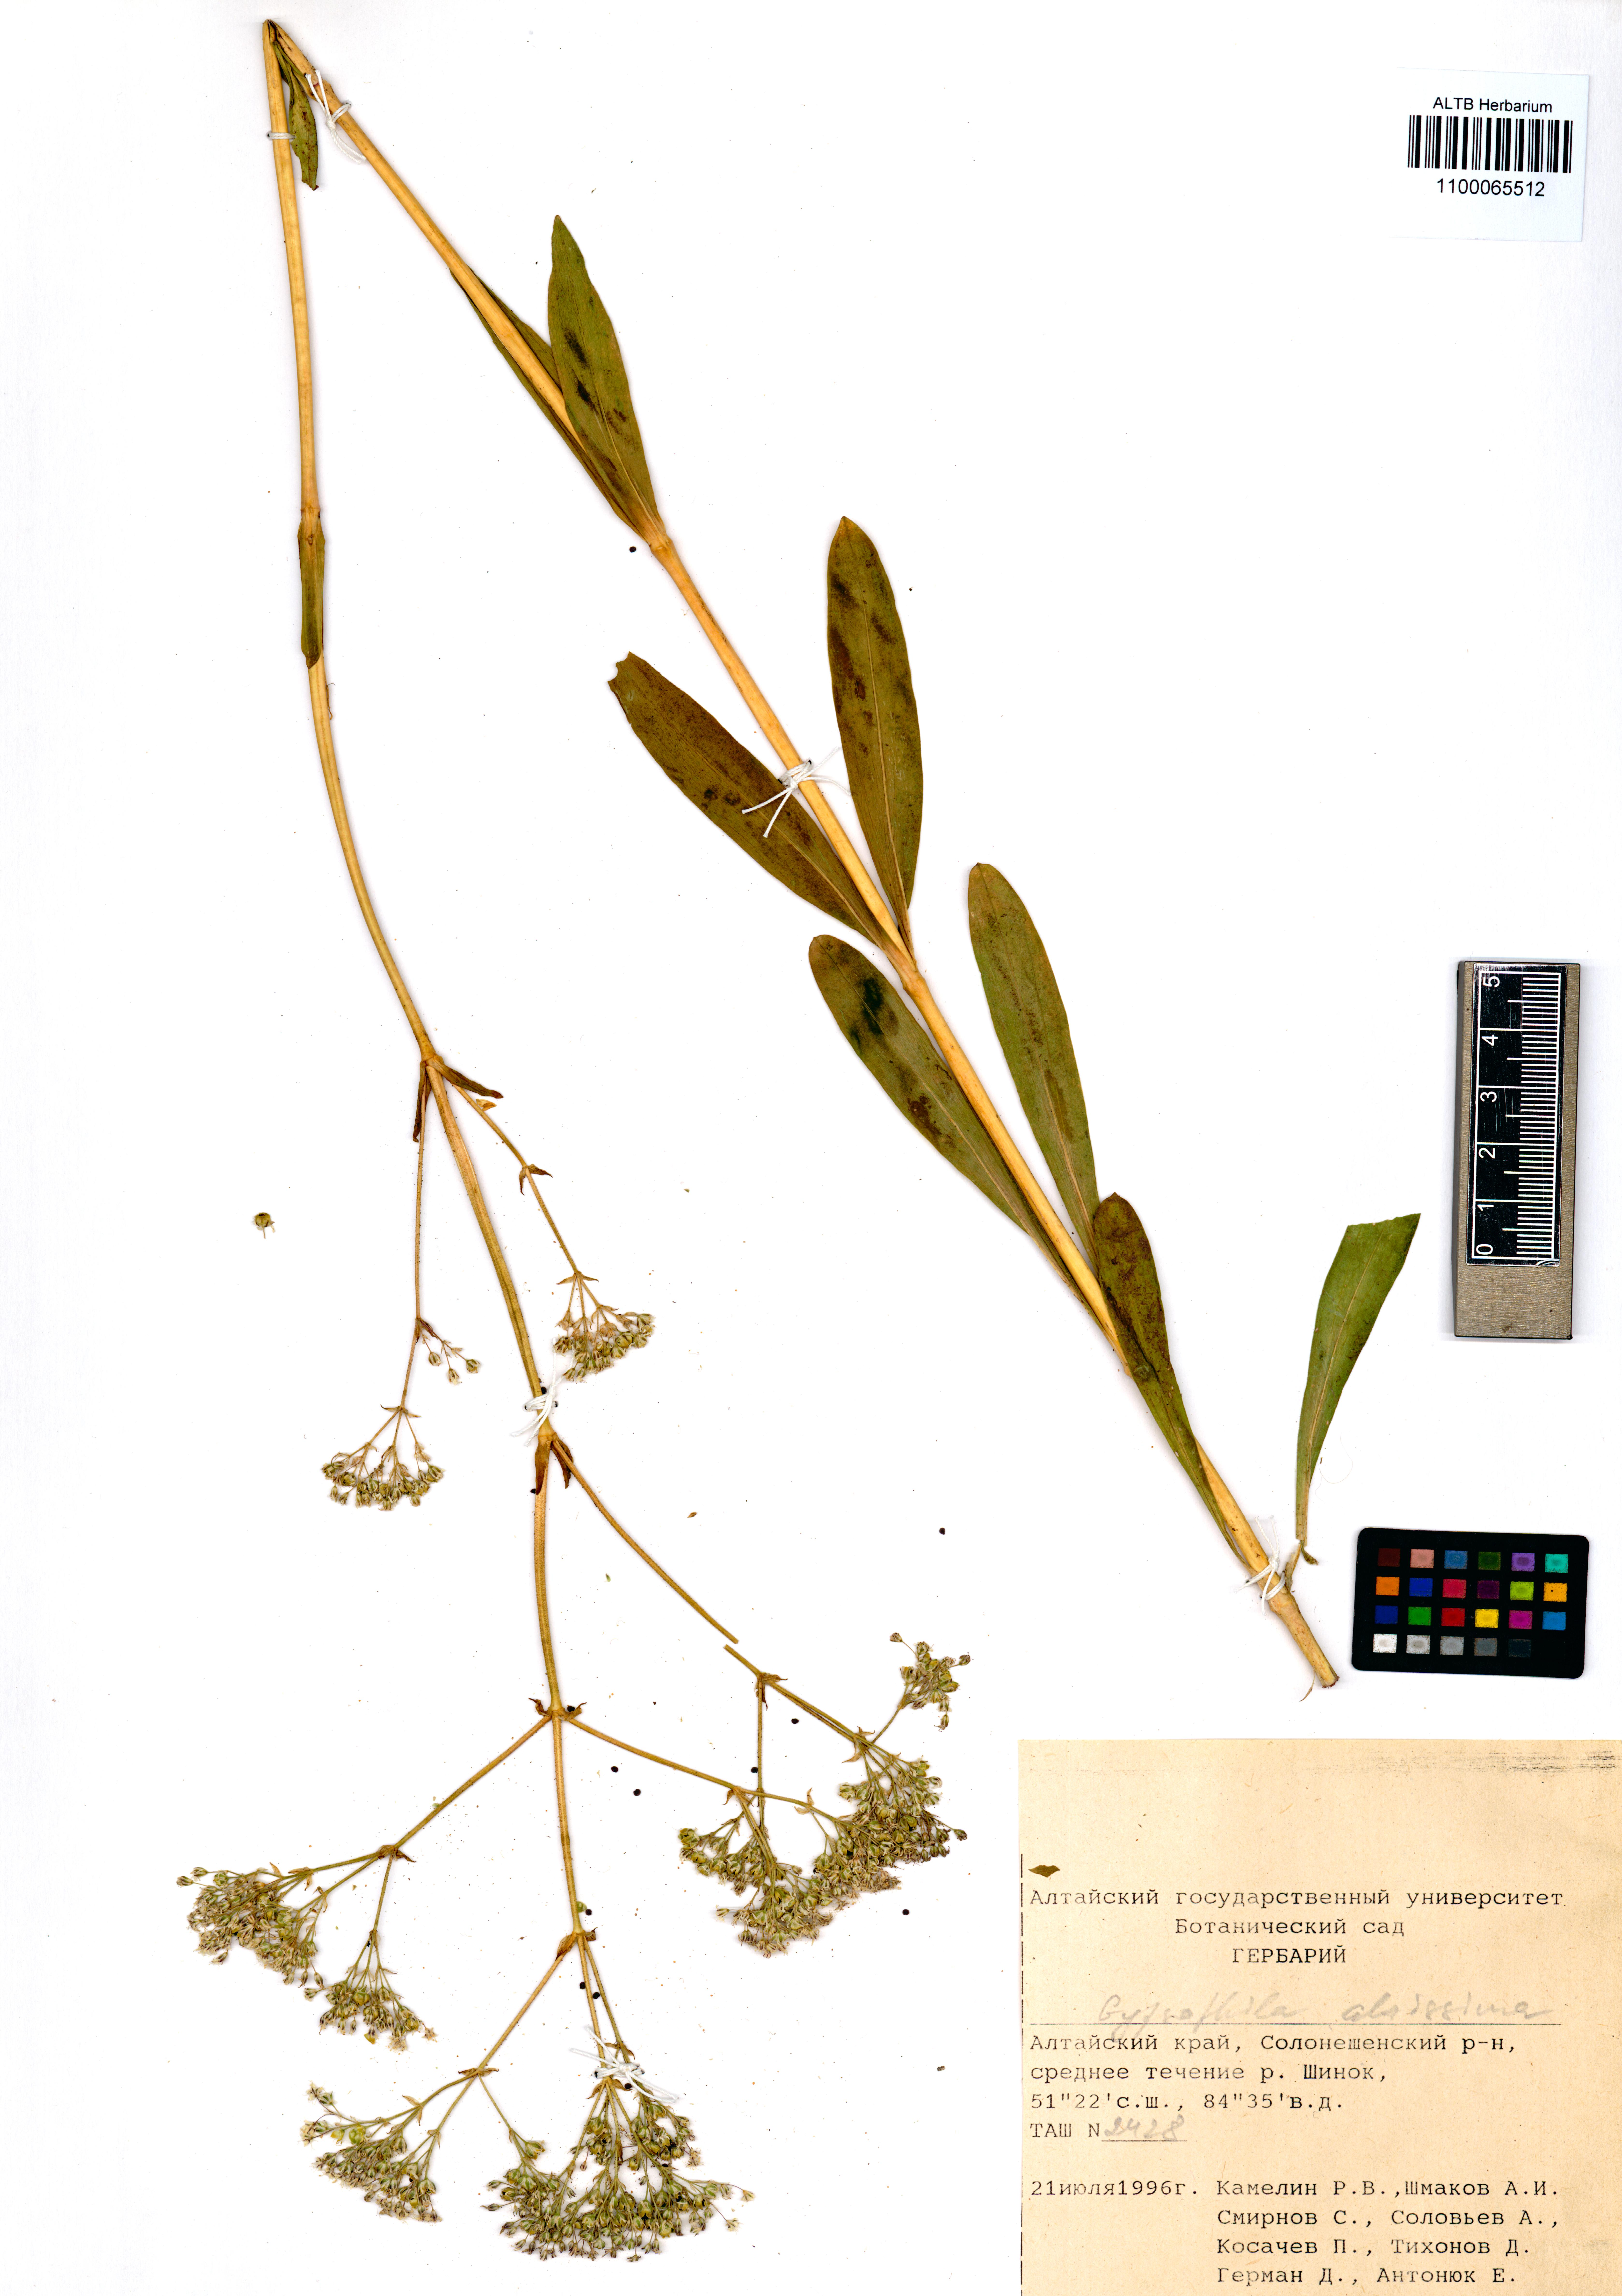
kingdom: Plantae
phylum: Tracheophyta
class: Magnoliopsida
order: Caryophyllales
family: Caryophyllaceae
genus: Gypsophila
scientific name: Gypsophila altissima
